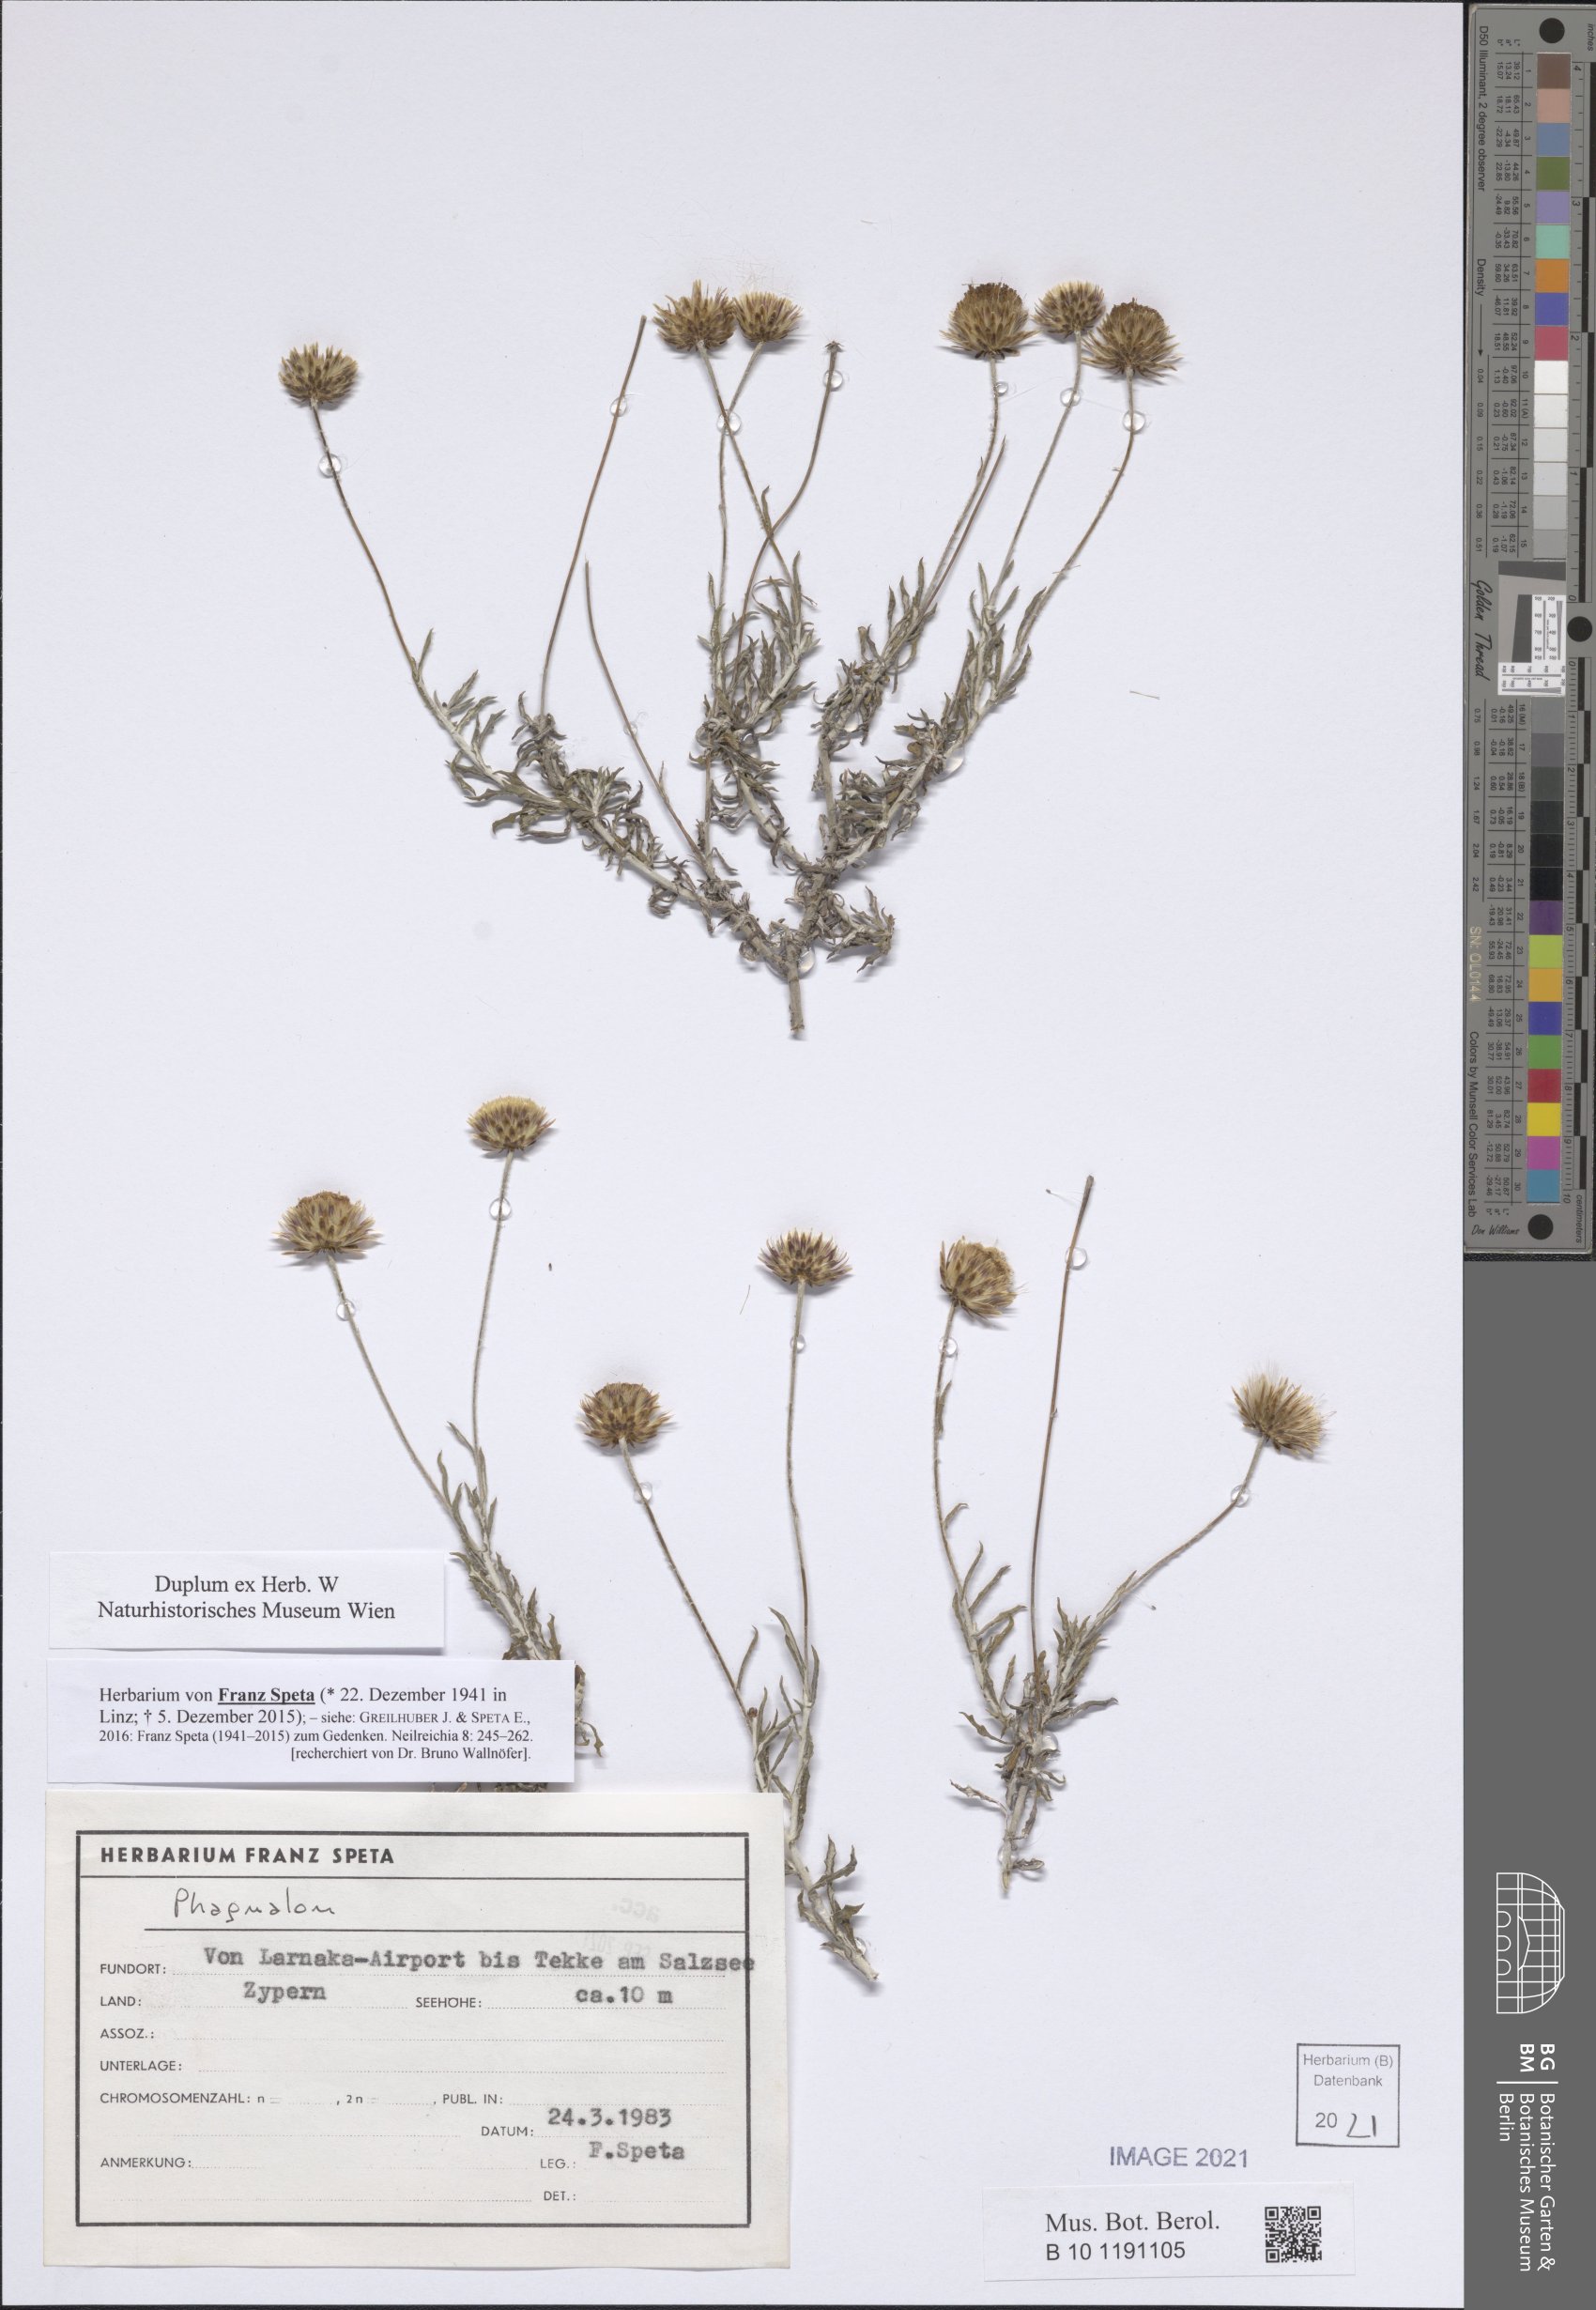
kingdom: Plantae
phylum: Tracheophyta
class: Magnoliopsida
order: Asterales
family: Asteraceae
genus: Phagnalon
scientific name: Phagnalon
